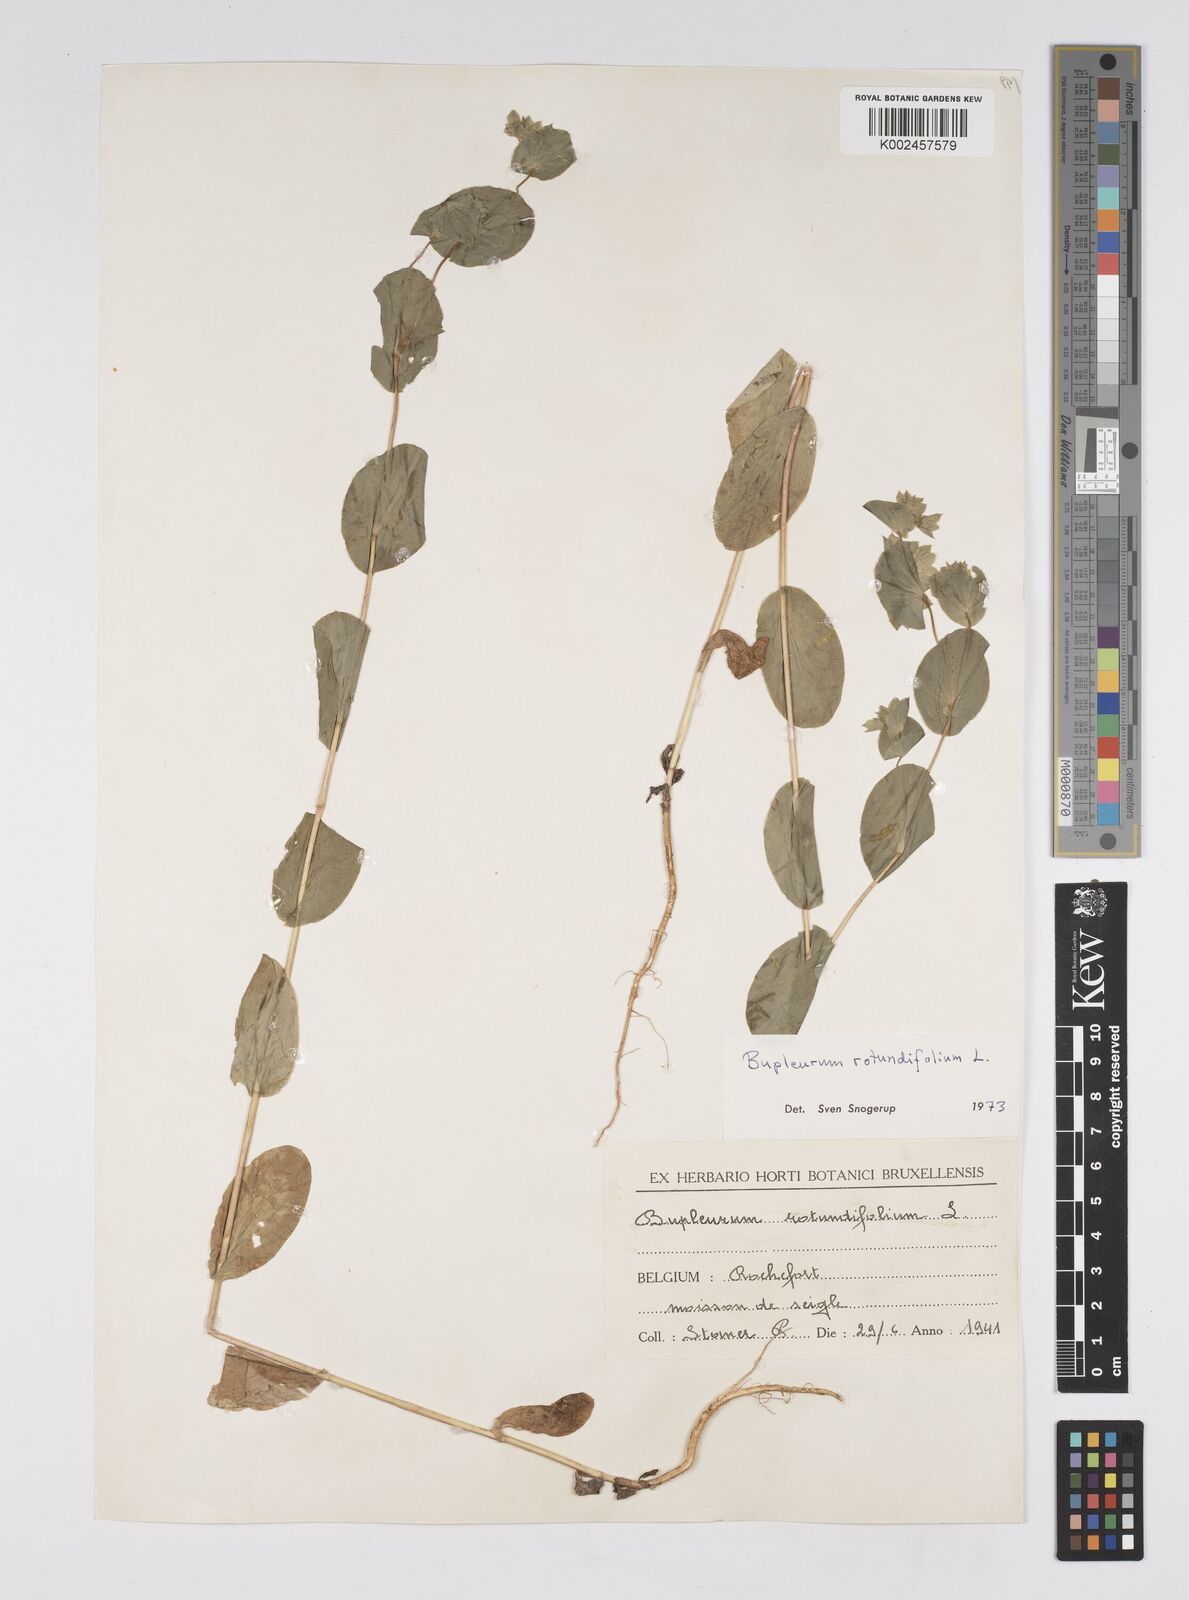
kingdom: Plantae
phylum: Tracheophyta
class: Magnoliopsida
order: Apiales
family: Apiaceae
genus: Bupleurum
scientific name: Bupleurum rotundifolium
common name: Thorow-wax
